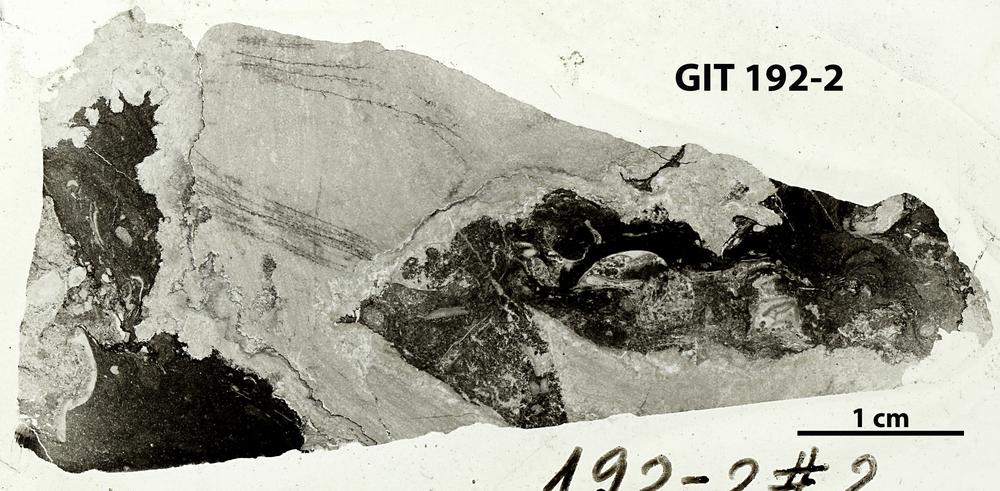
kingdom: Animalia
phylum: Porifera
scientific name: Porifera
